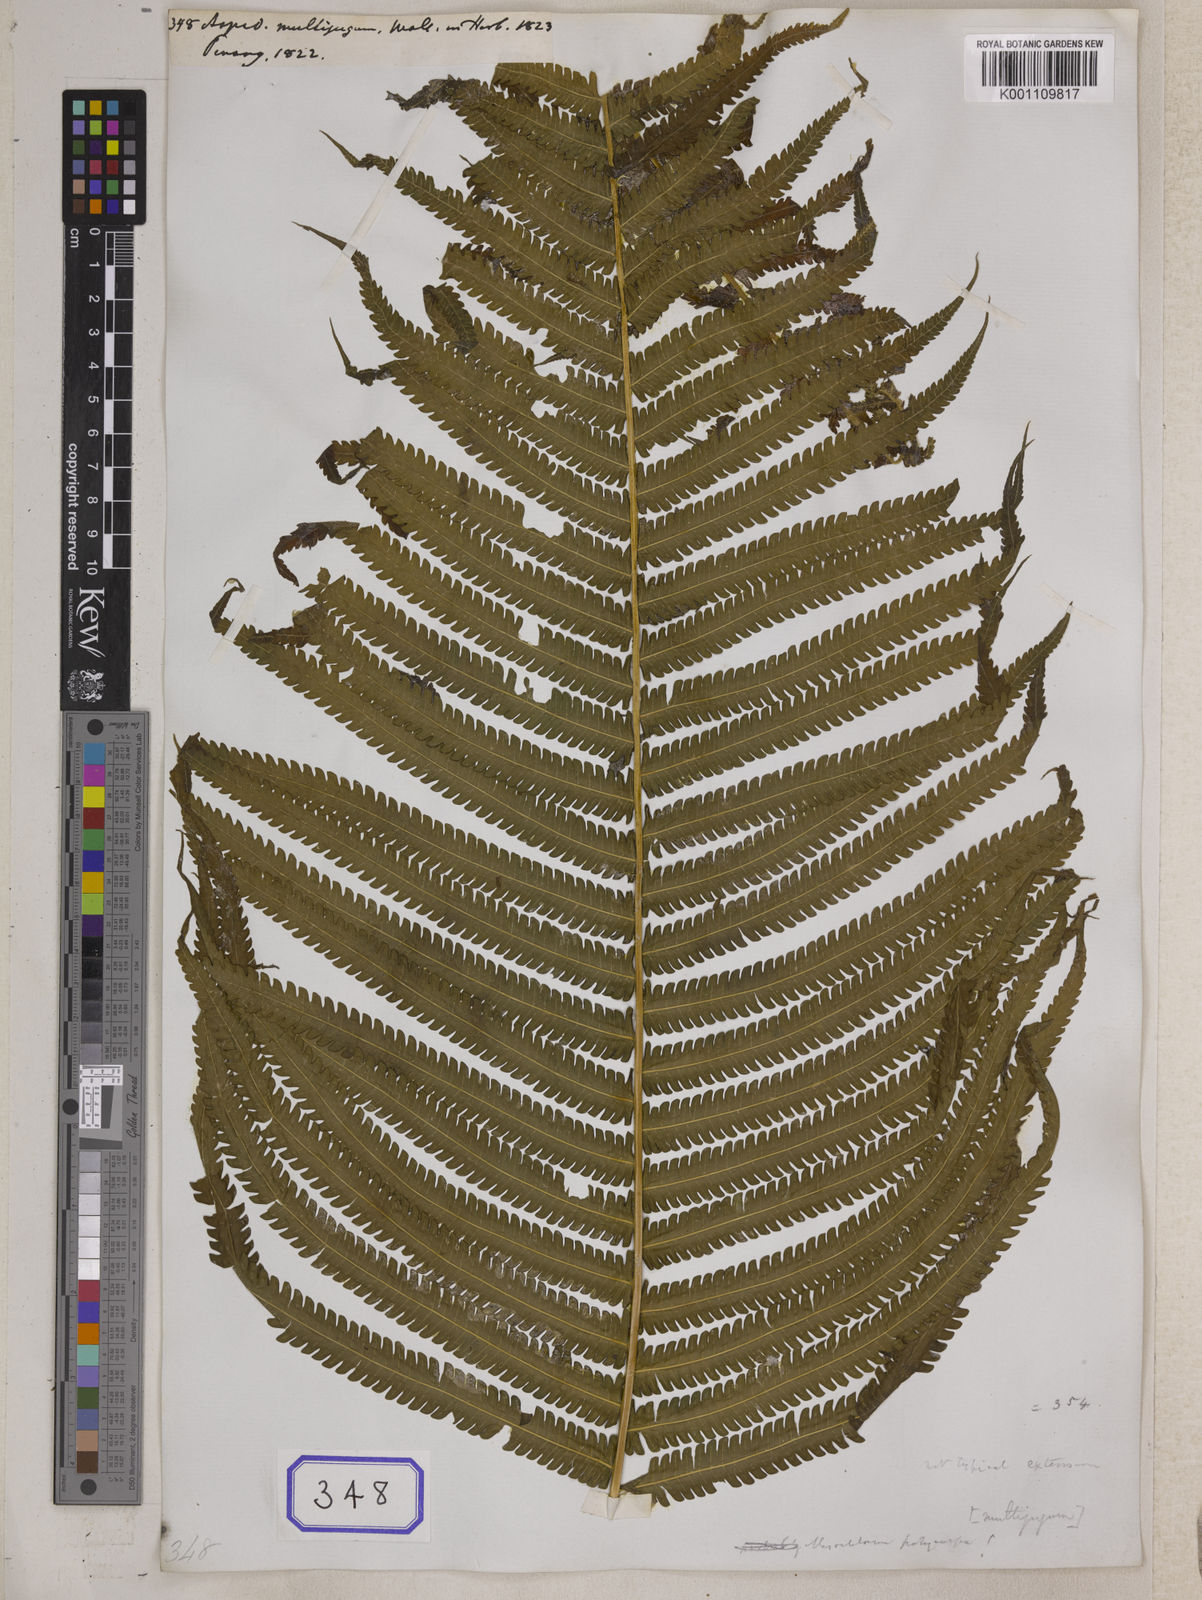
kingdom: Plantae
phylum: Tracheophyta
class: Polypodiopsida
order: Polypodiales
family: Thelypteridaceae
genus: Amblovenatum
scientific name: Amblovenatum opulentum
